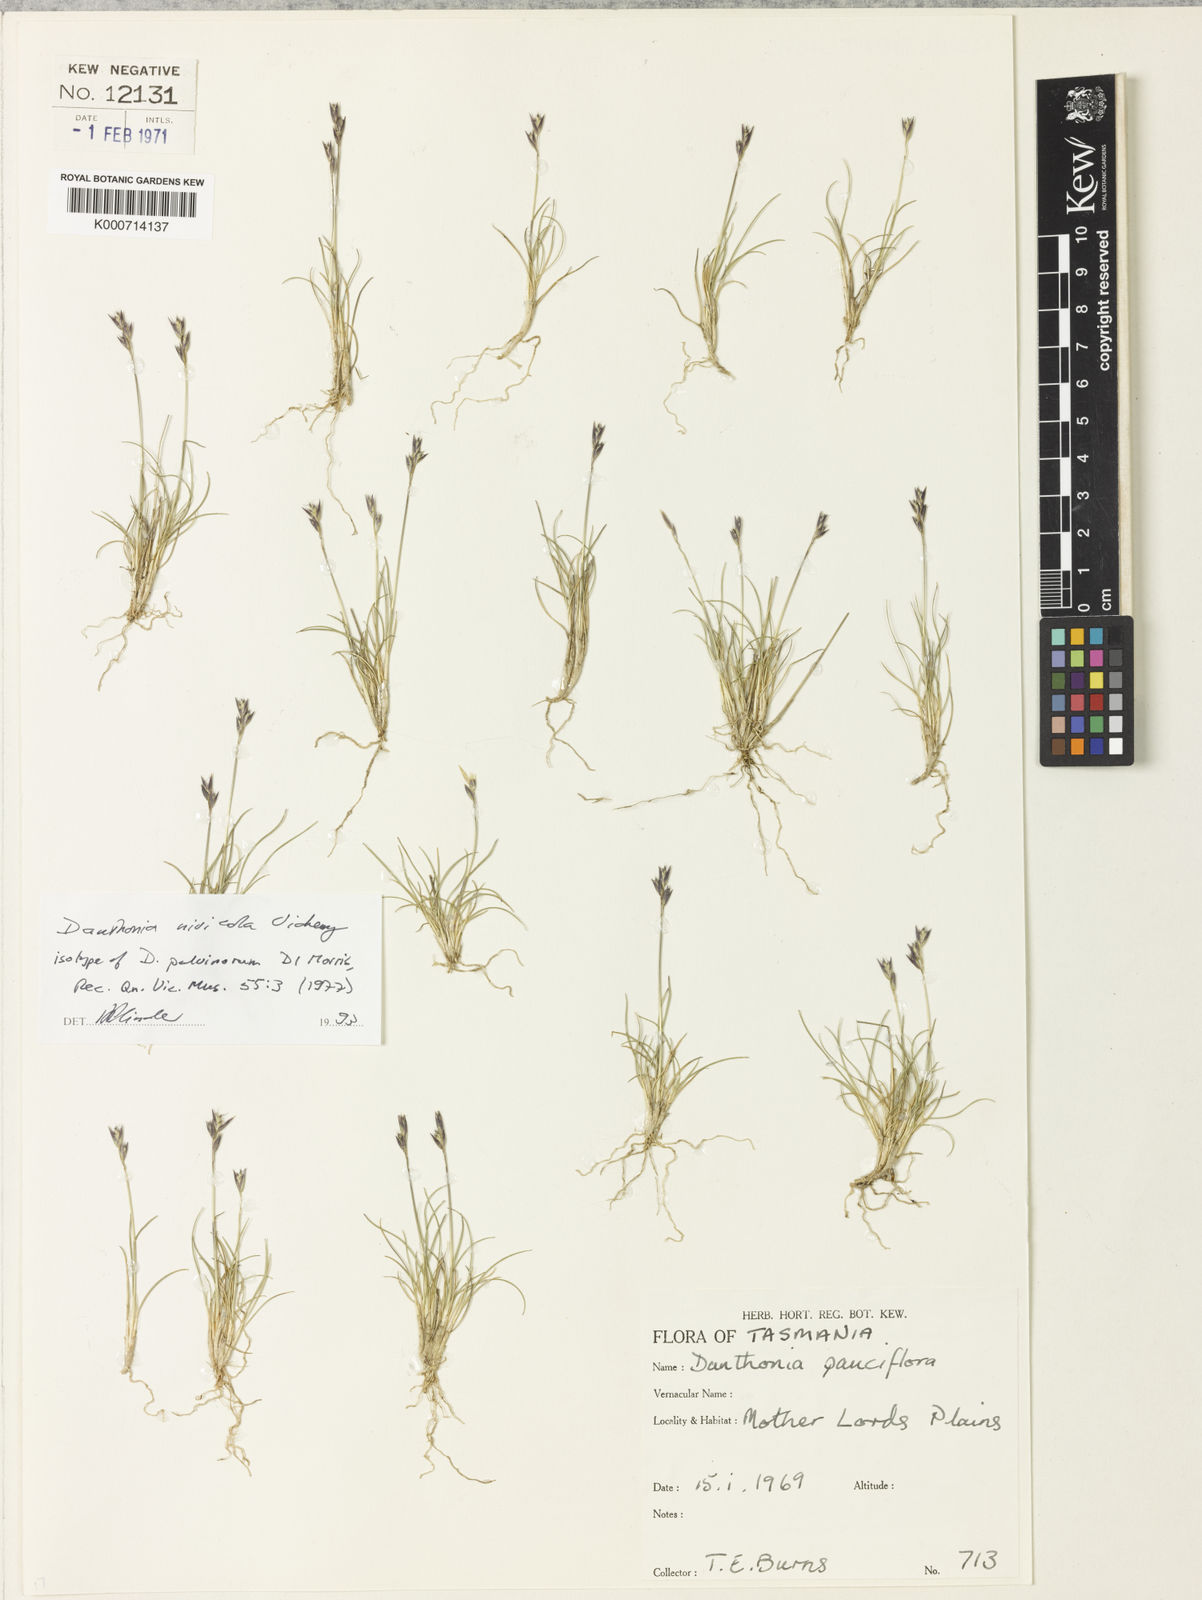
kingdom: Plantae
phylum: Tracheophyta
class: Liliopsida
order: Poales
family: Poaceae
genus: Rytidosperma
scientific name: Rytidosperma nivicola
